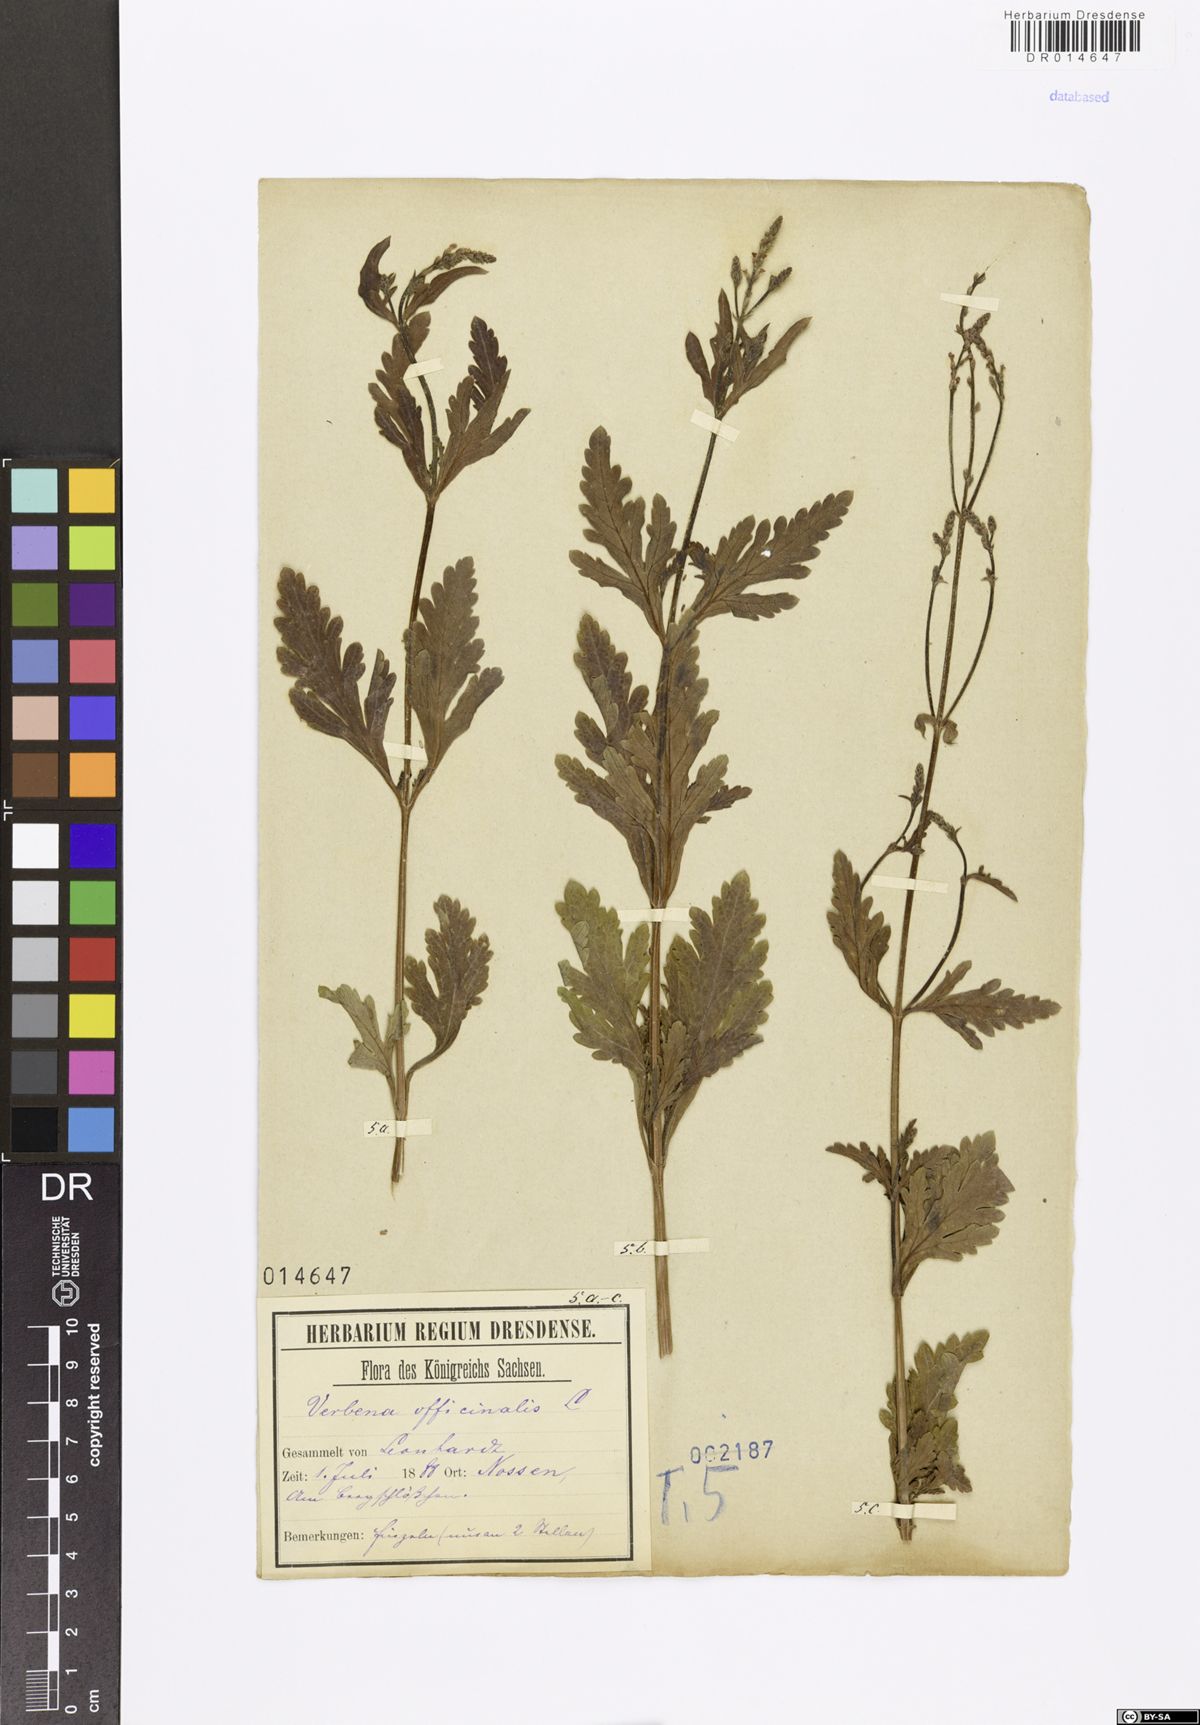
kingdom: Plantae
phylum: Tracheophyta
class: Magnoliopsida
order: Lamiales
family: Verbenaceae
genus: Verbena
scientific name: Verbena officinalis
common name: Vervain
